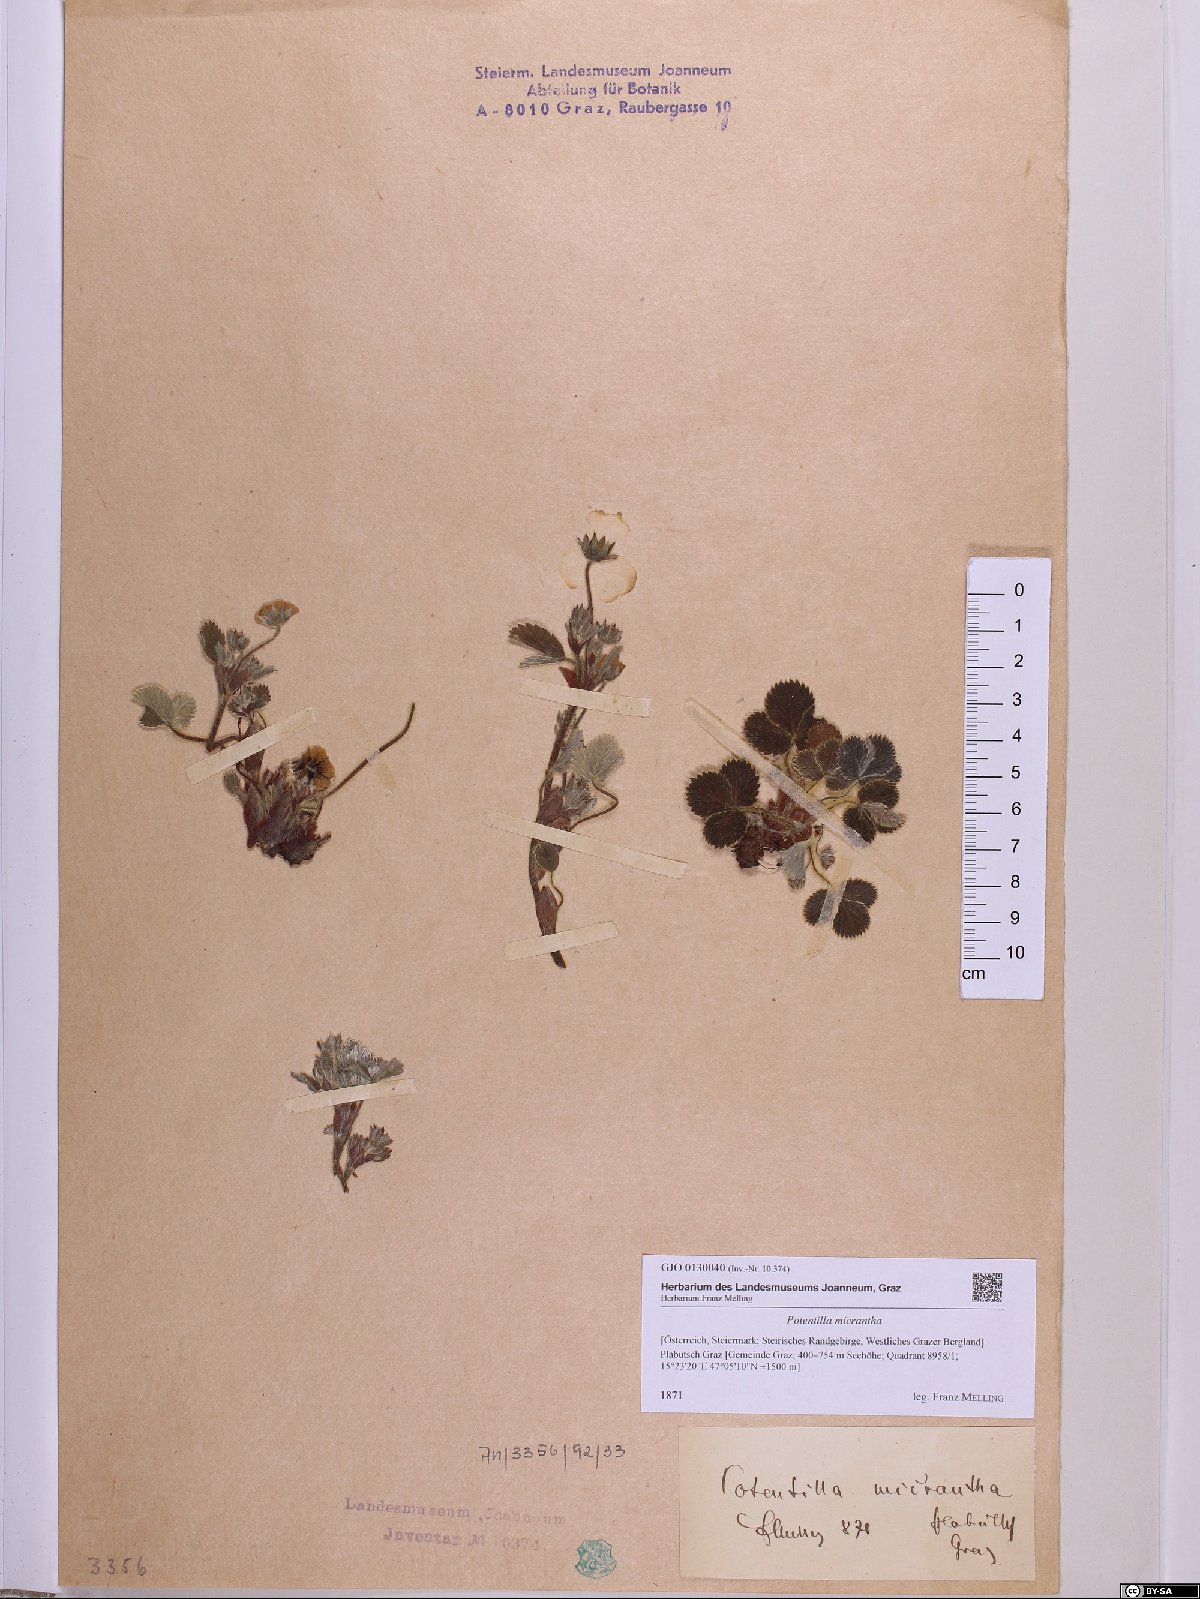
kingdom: Plantae
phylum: Tracheophyta
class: Magnoliopsida
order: Rosales
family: Rosaceae
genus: Potentilla
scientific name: Potentilla micrantha
